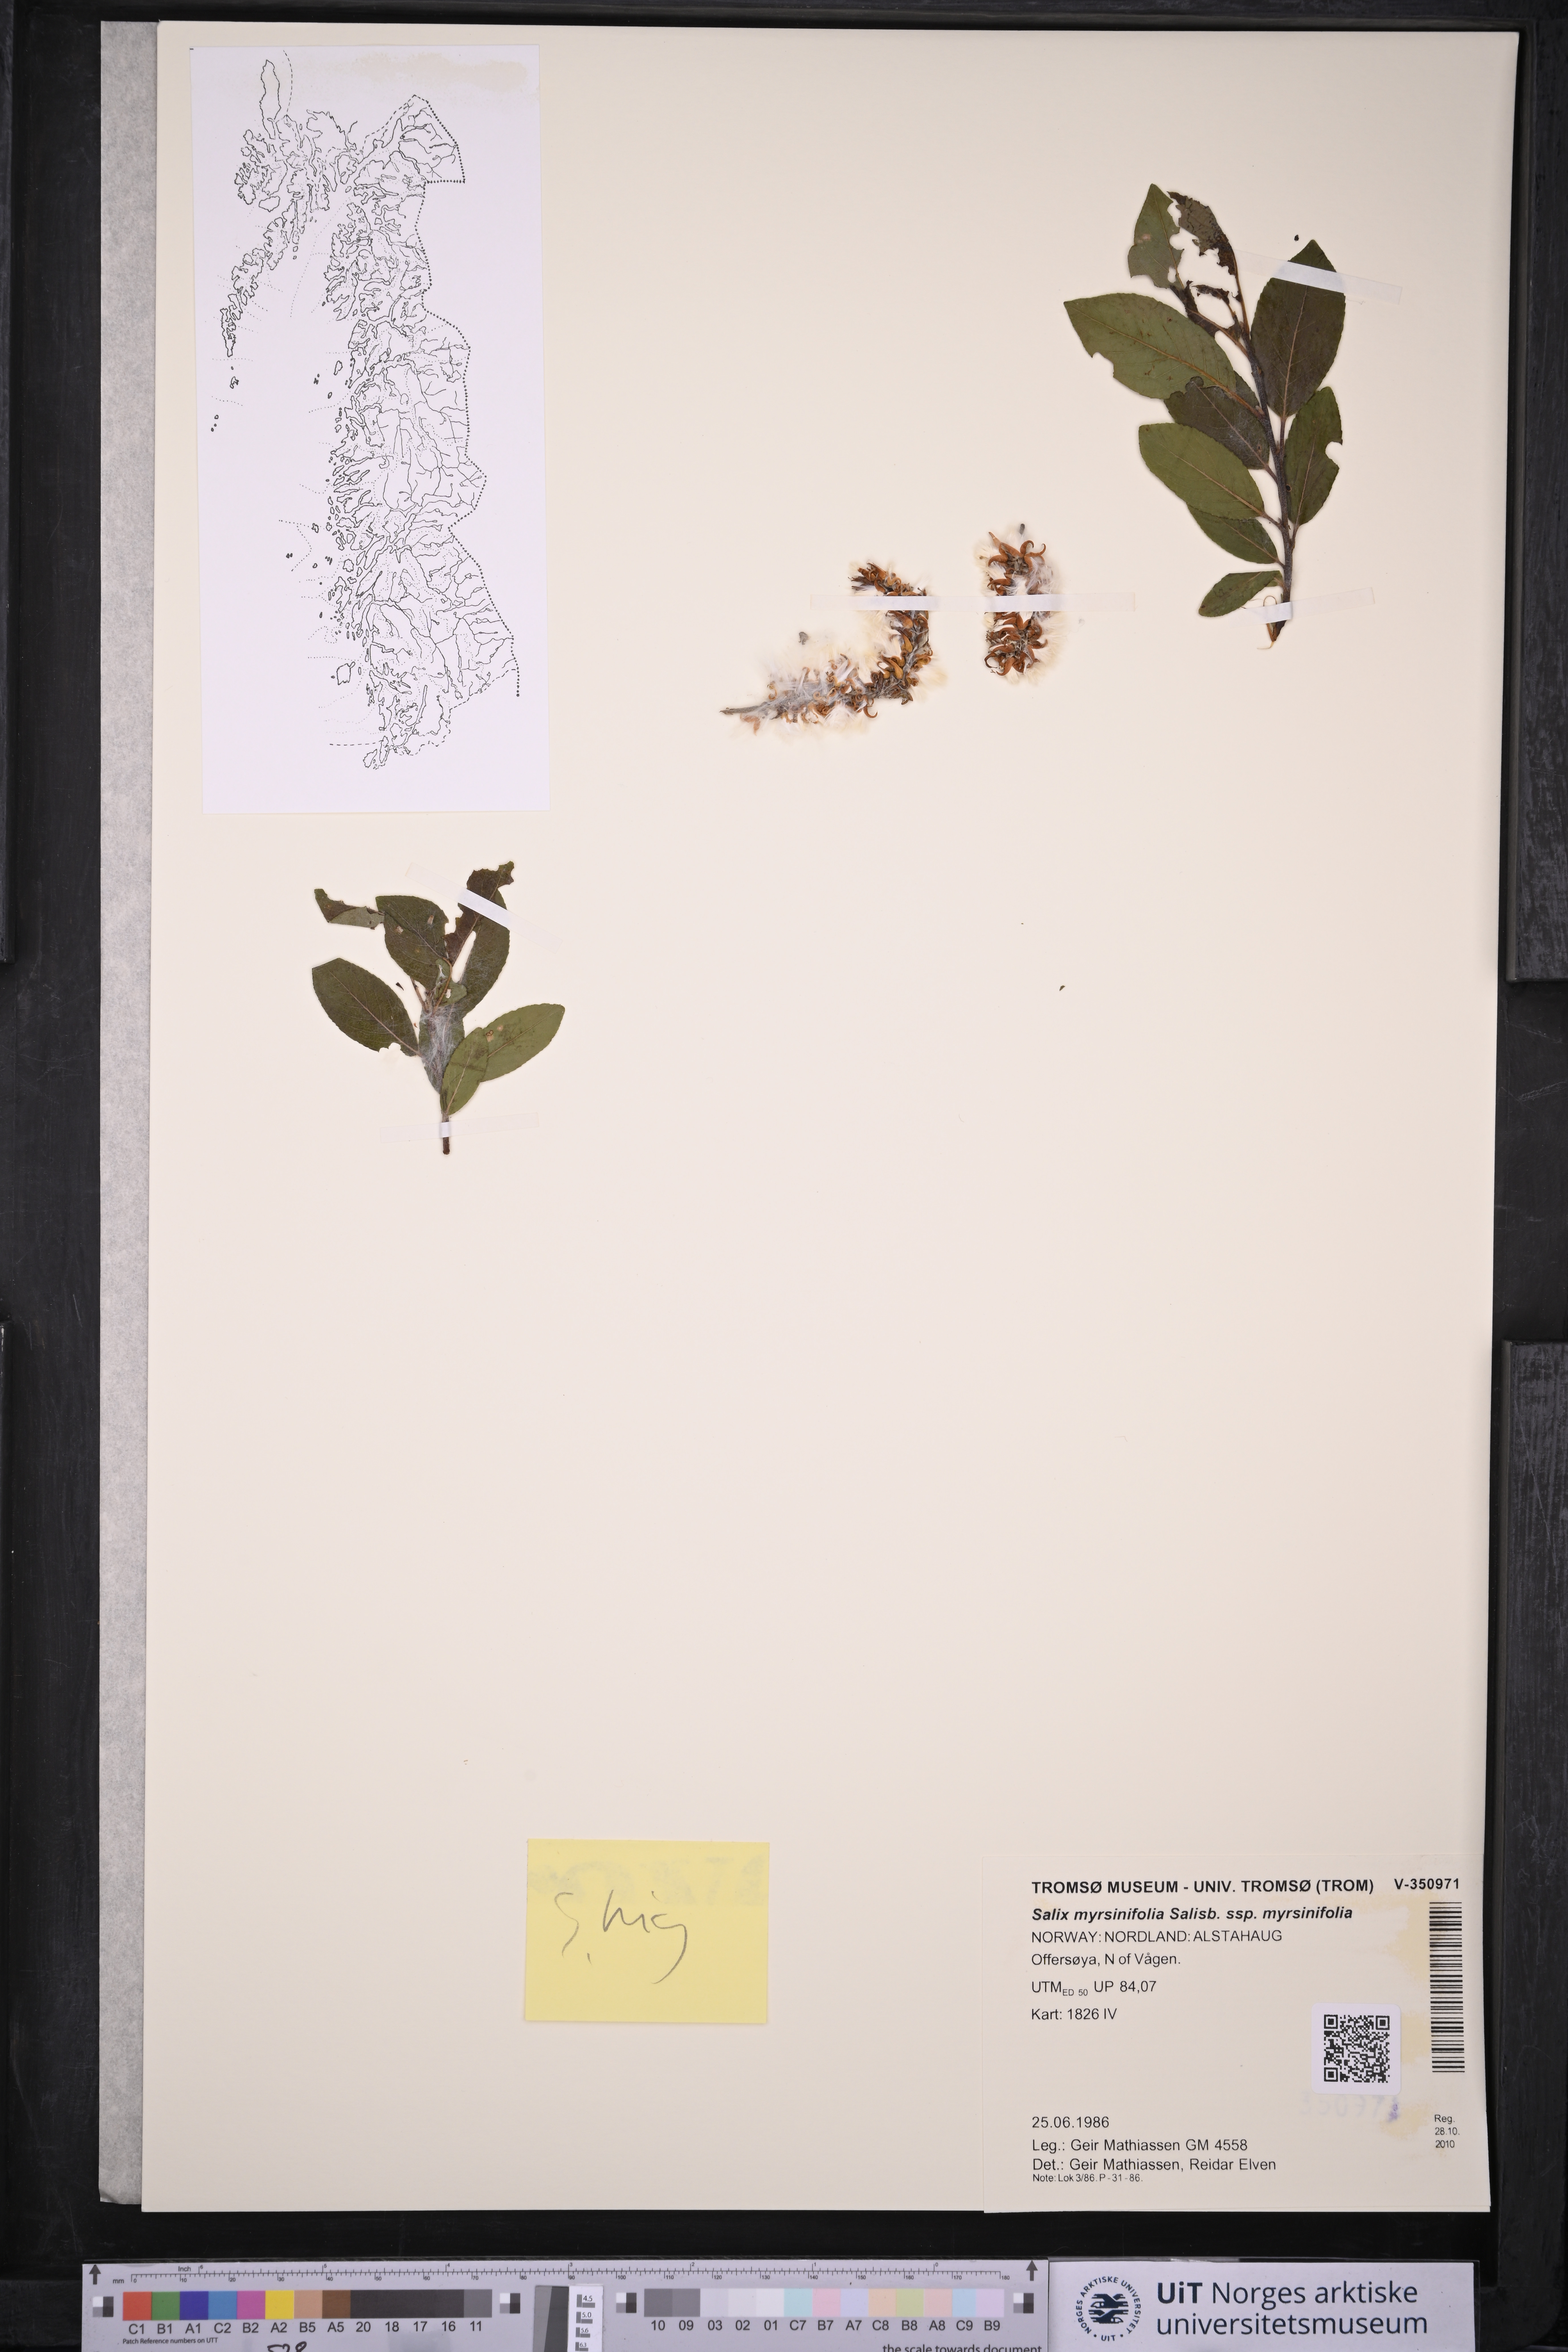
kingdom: Plantae
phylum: Tracheophyta
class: Magnoliopsida
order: Malpighiales
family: Salicaceae
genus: Salix
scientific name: Salix myrsinifolia
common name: Dark-leaved willow
